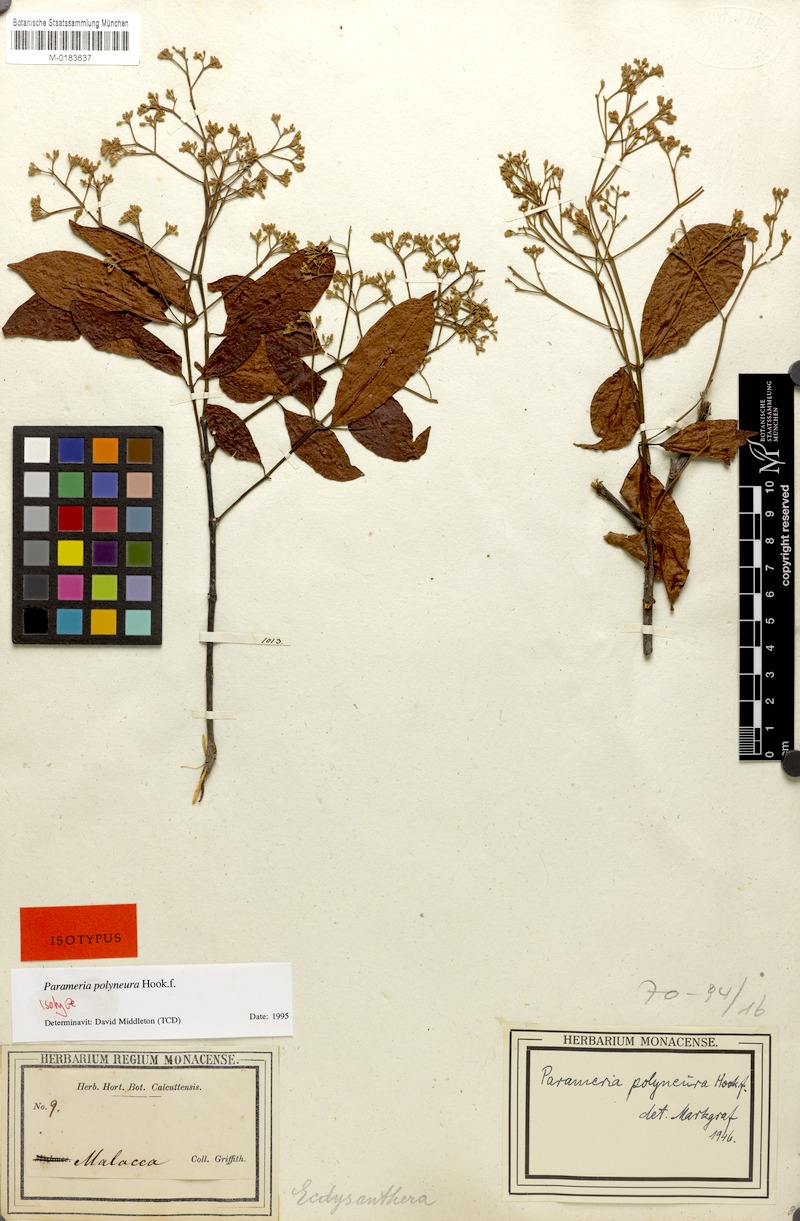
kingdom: Plantae
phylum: Tracheophyta
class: Magnoliopsida
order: Gentianales
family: Apocynaceae
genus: Urceola
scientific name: Urceola polyneura
